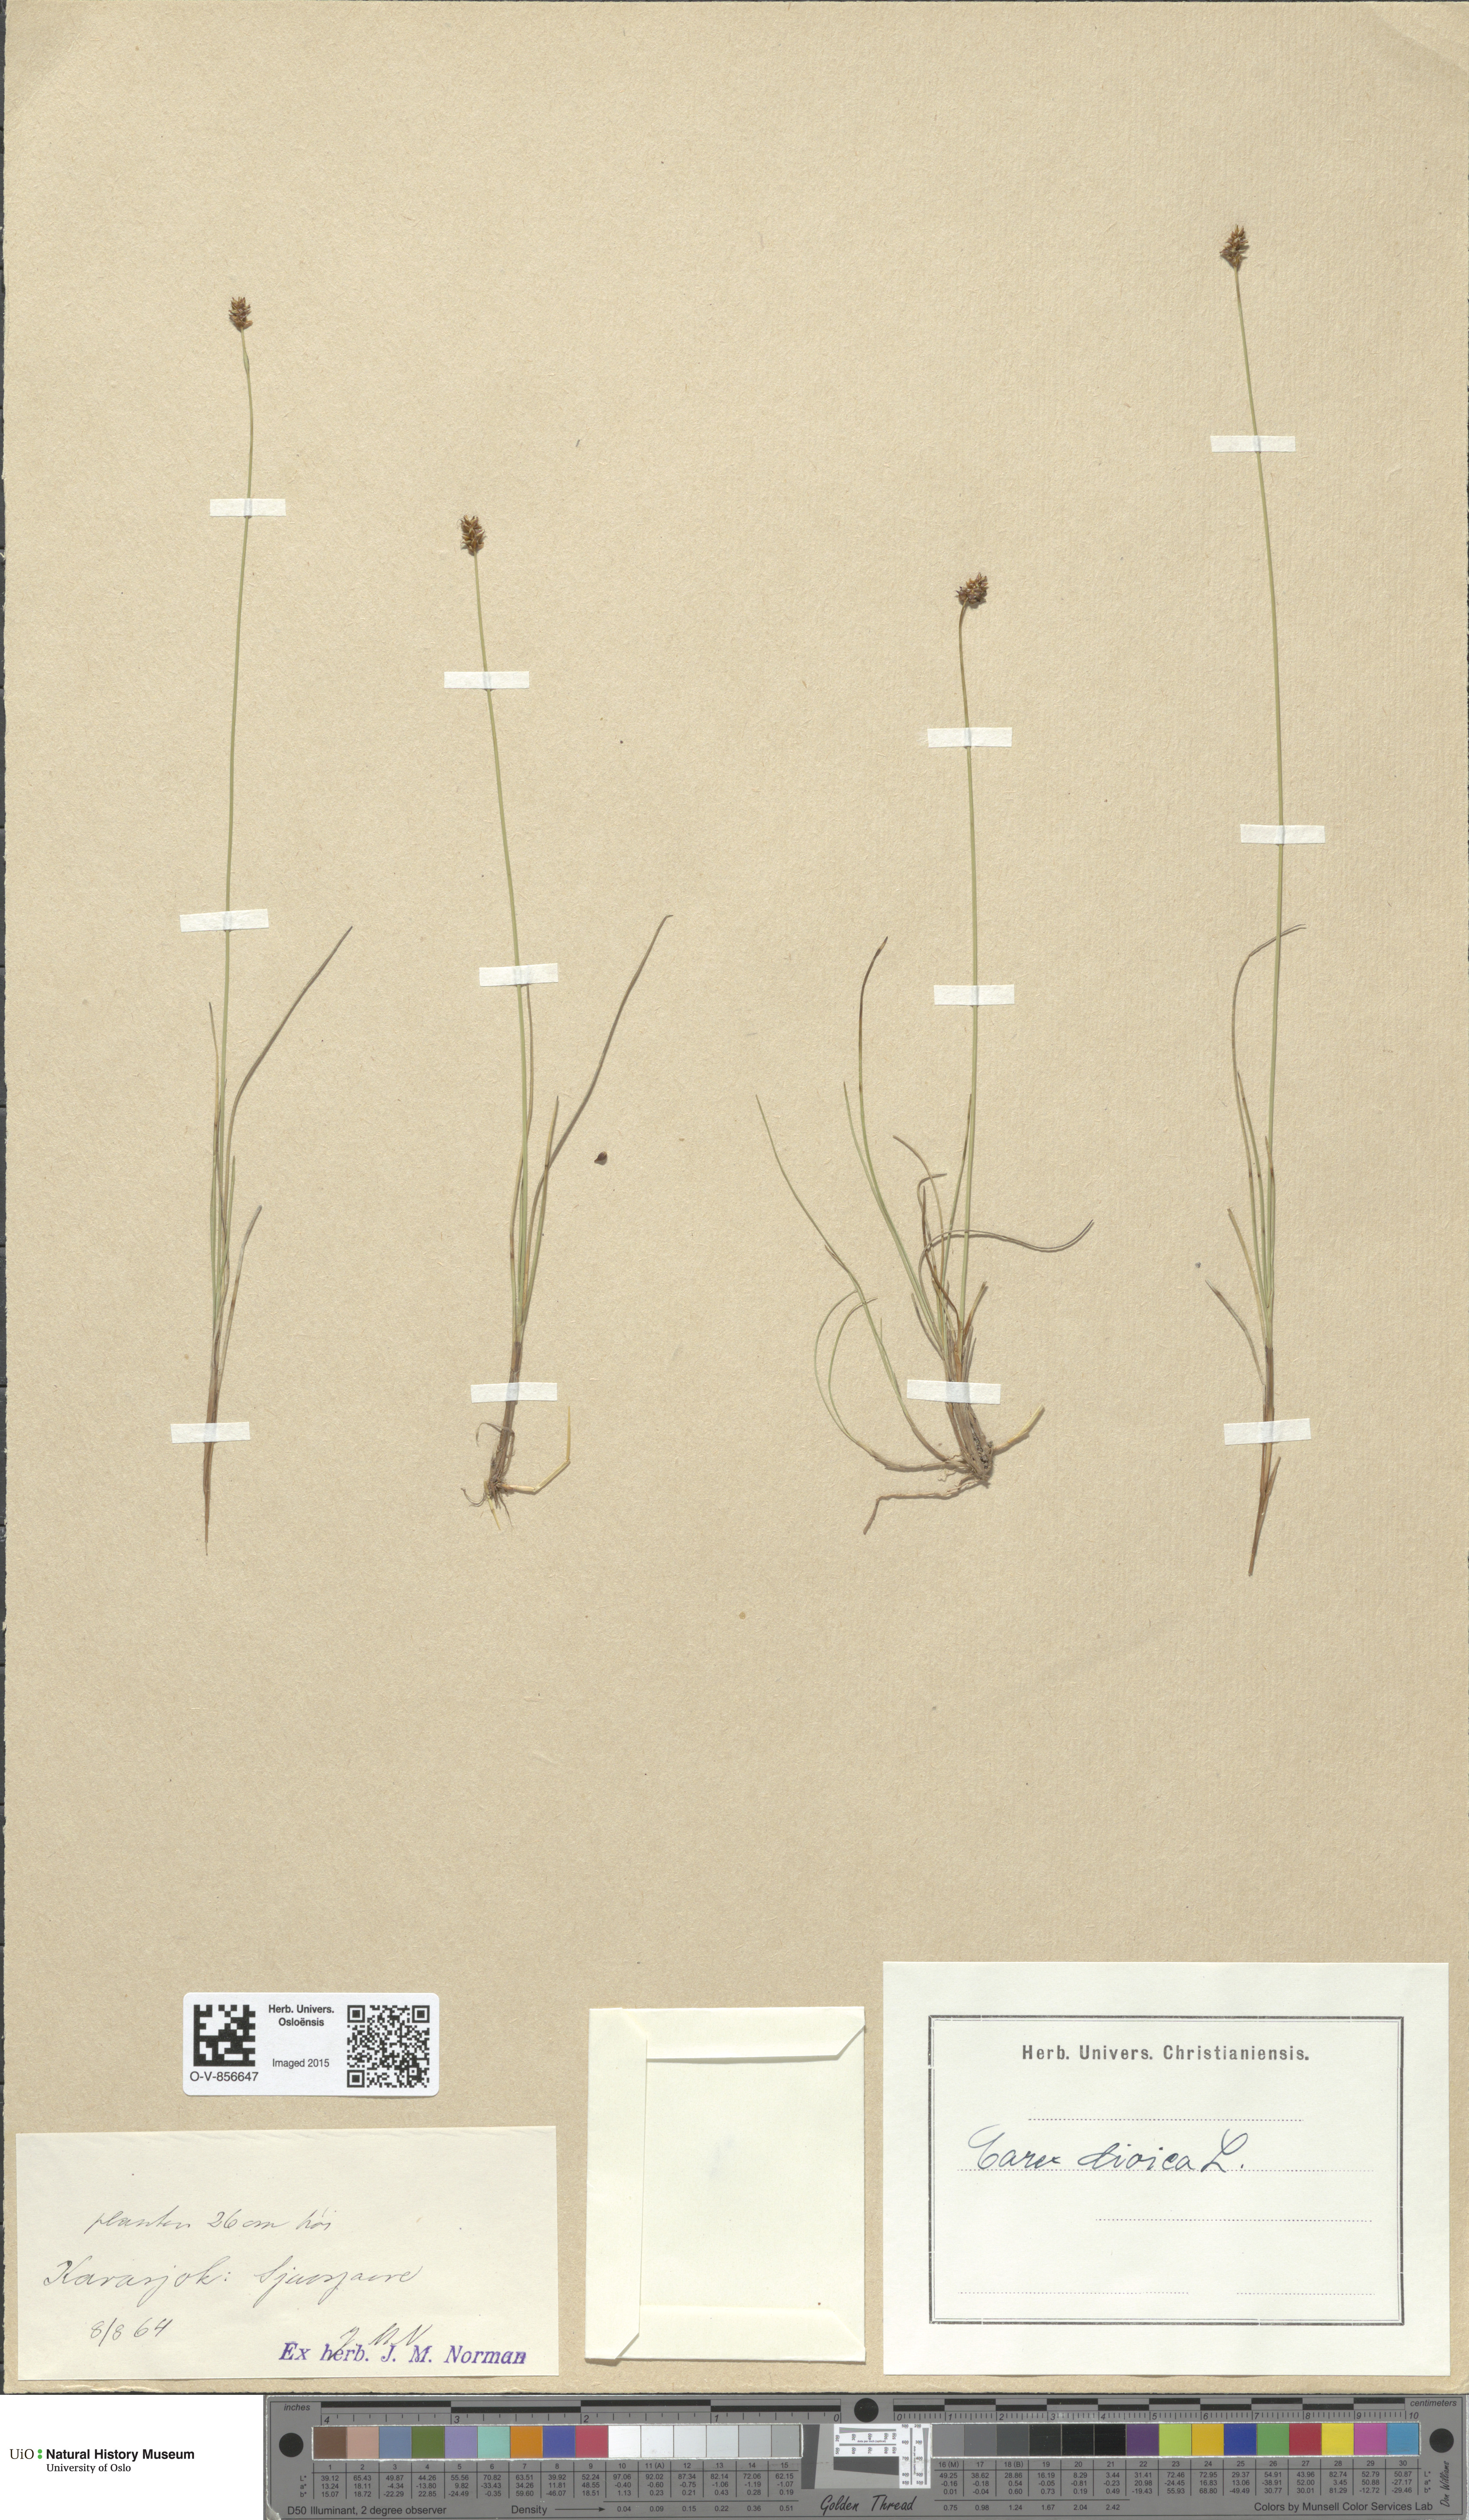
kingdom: Plantae
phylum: Tracheophyta
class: Liliopsida
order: Poales
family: Cyperaceae
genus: Carex
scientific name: Carex dioica
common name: Dioecious sedge
